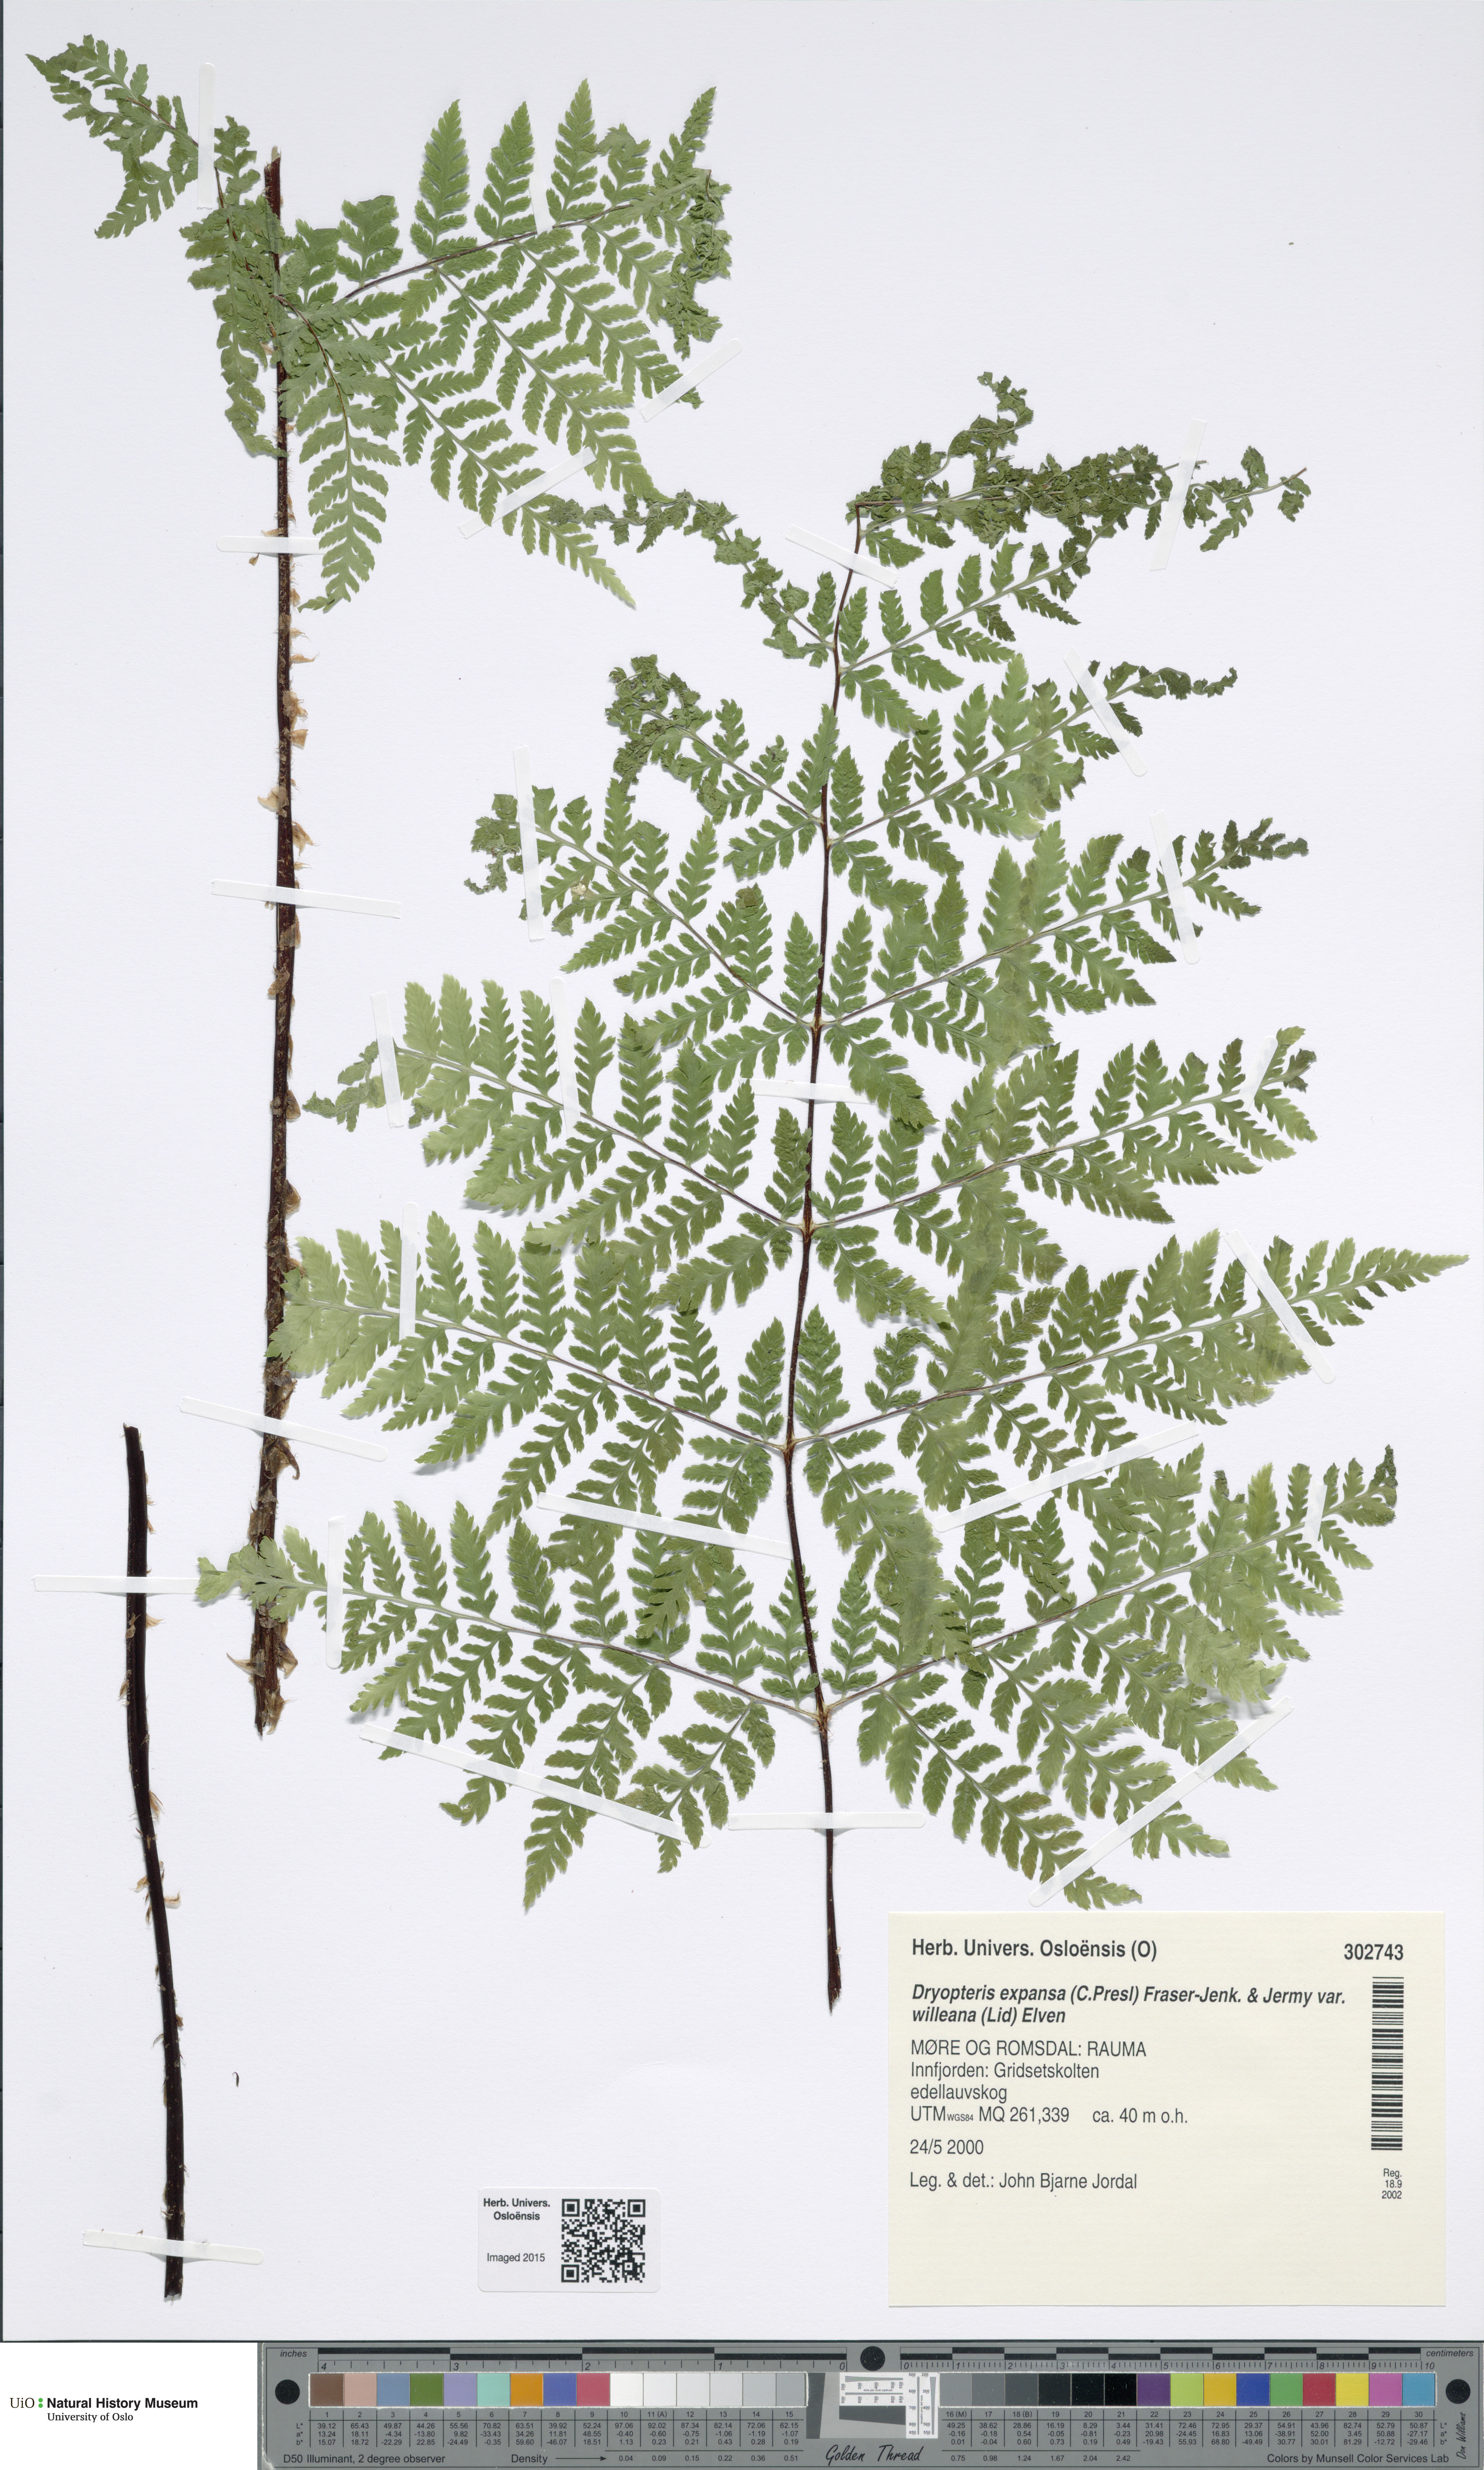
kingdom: Plantae
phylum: Tracheophyta
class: Polypodiopsida
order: Polypodiales
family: Dryopteridaceae
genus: Dryopteris
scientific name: Dryopteris expansa
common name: Northern buckler fern
